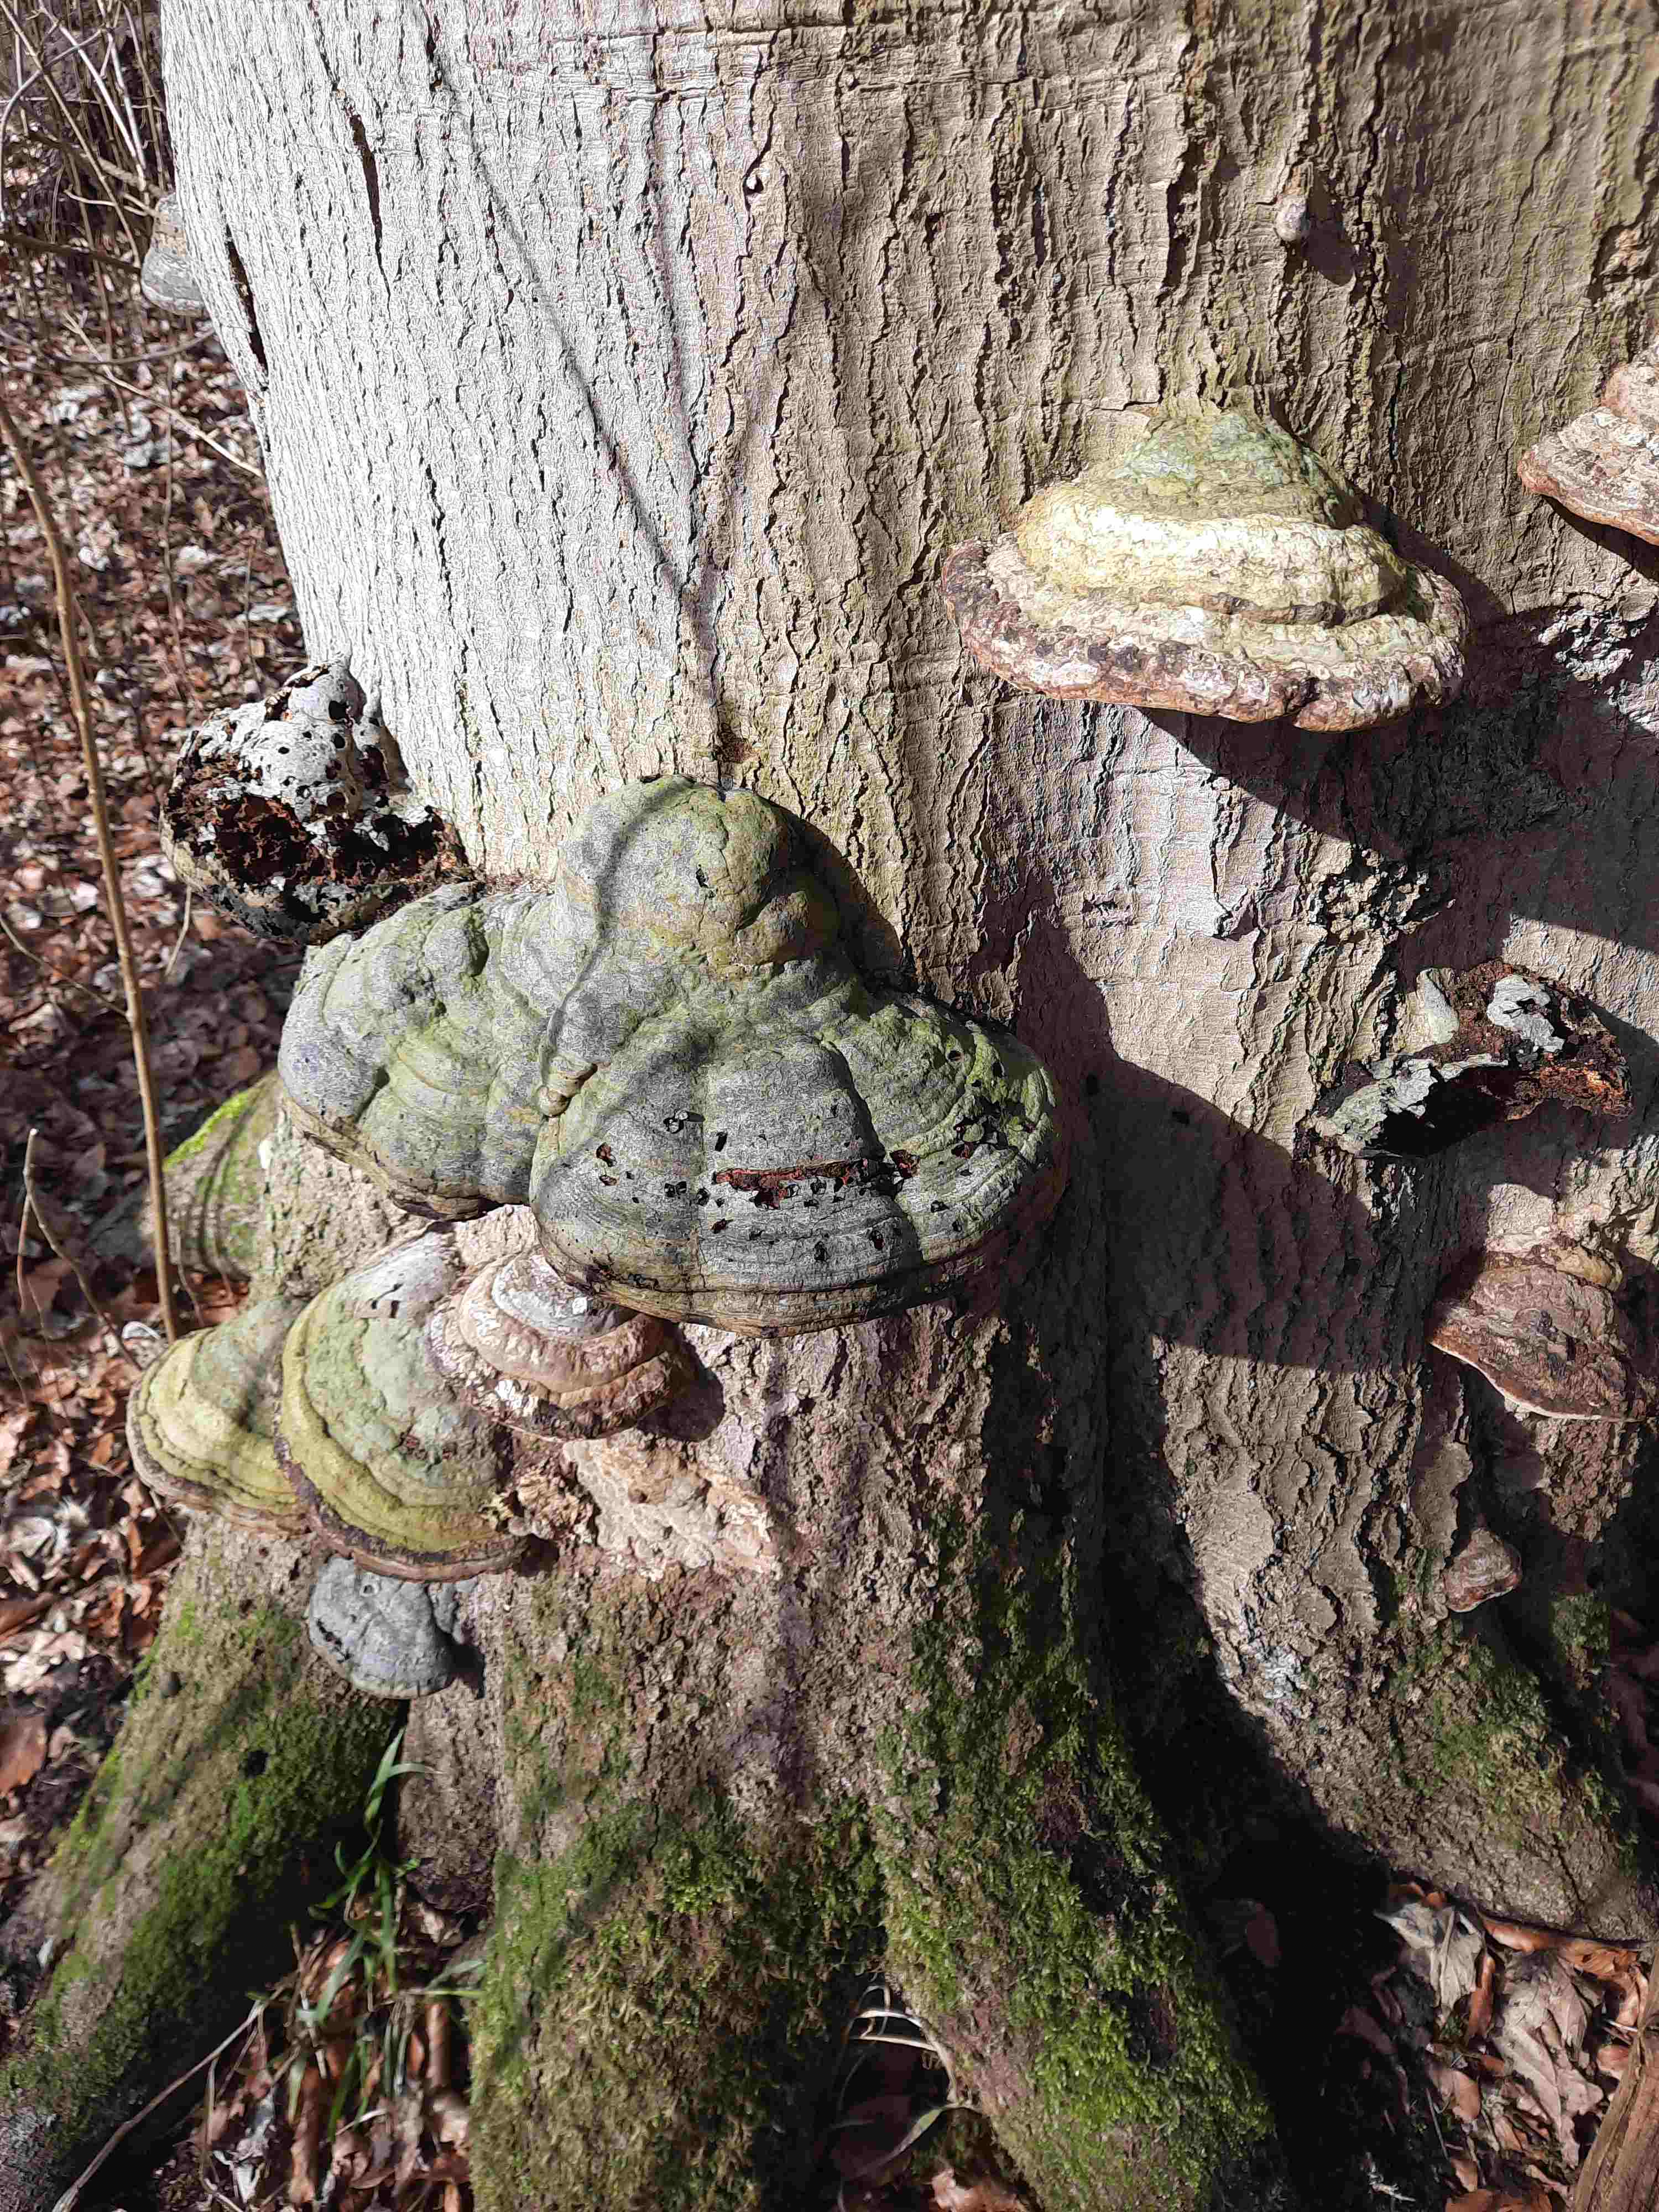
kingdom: Fungi
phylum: Basidiomycota
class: Agaricomycetes
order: Polyporales
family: Polyporaceae
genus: Fomes
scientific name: Fomes fomentarius
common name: tøndersvamp
